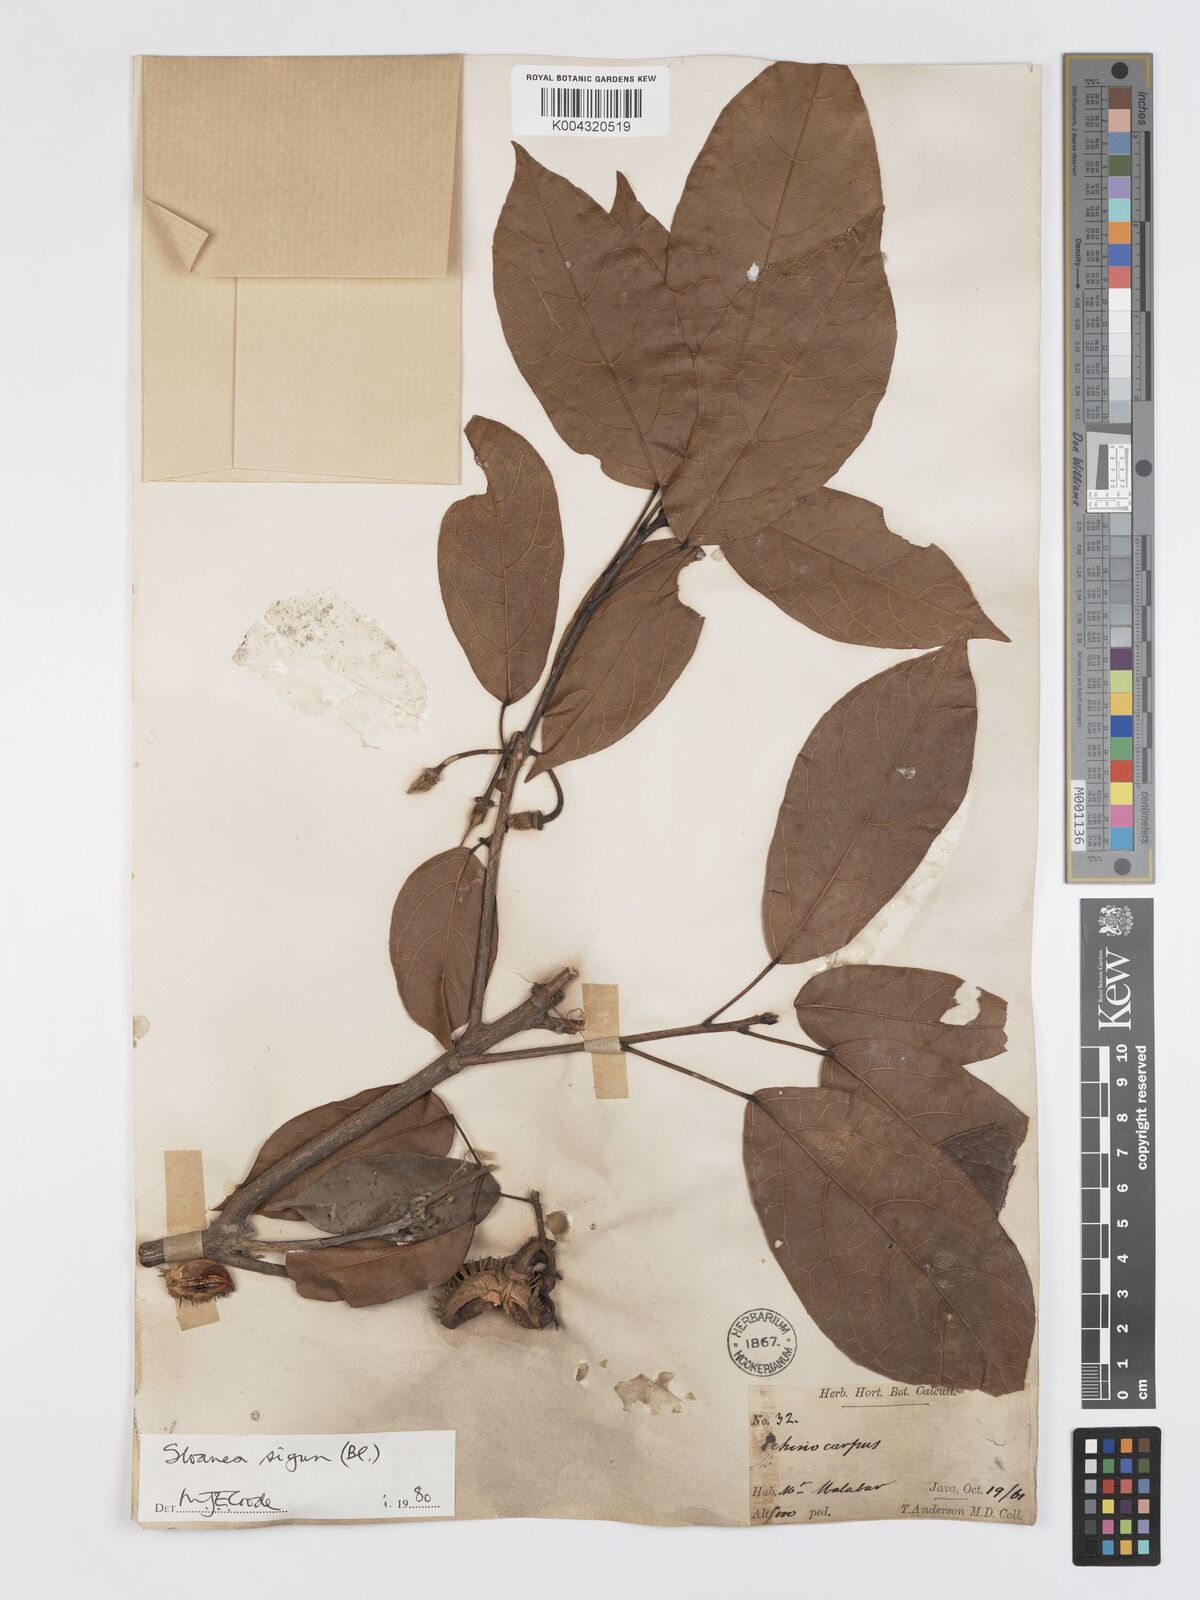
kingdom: Plantae
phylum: Tracheophyta
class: Magnoliopsida
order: Oxalidales
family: Elaeocarpaceae
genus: Sloanea
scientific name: Sloanea sigun
